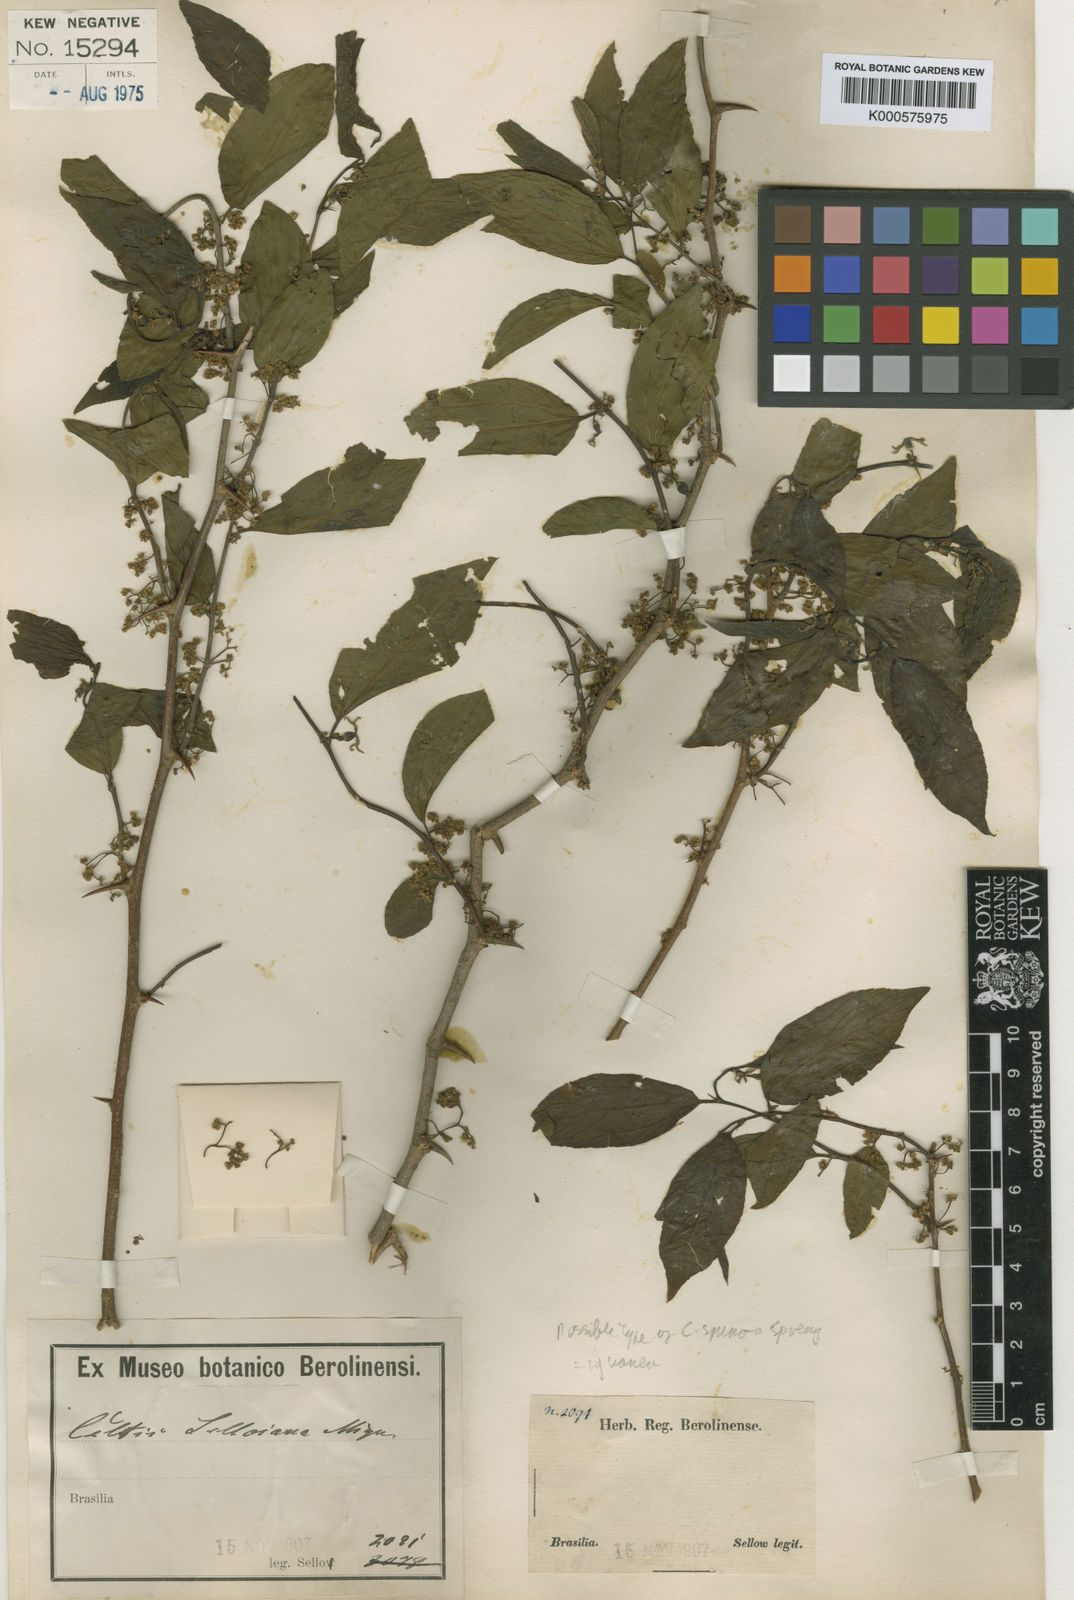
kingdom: Plantae
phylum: Tracheophyta
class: Magnoliopsida
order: Rosales
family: Cannabaceae
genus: Celtis
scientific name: Celtis iguanaea
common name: Iguana hackberry
